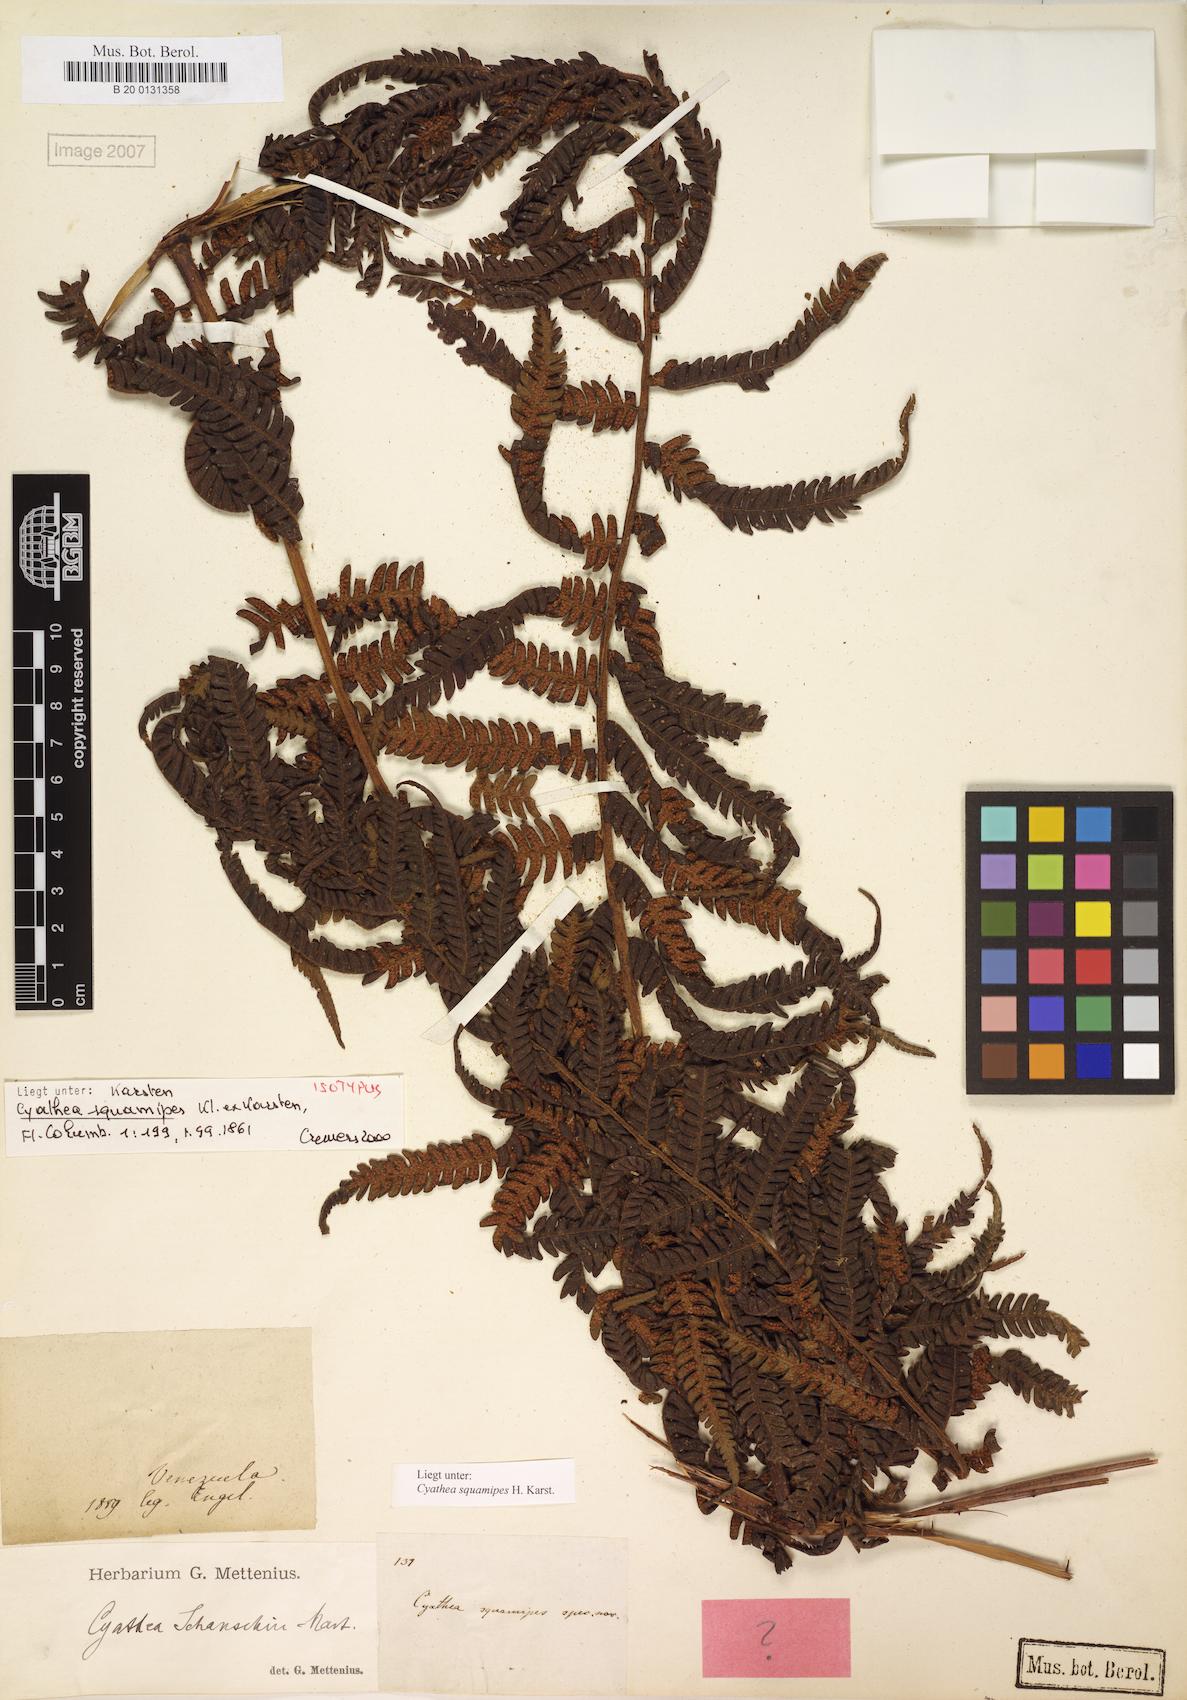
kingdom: Plantae
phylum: Tracheophyta
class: Polypodiopsida
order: Cyatheales
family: Cyatheaceae
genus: Cyathea
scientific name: Cyathea squamipes
